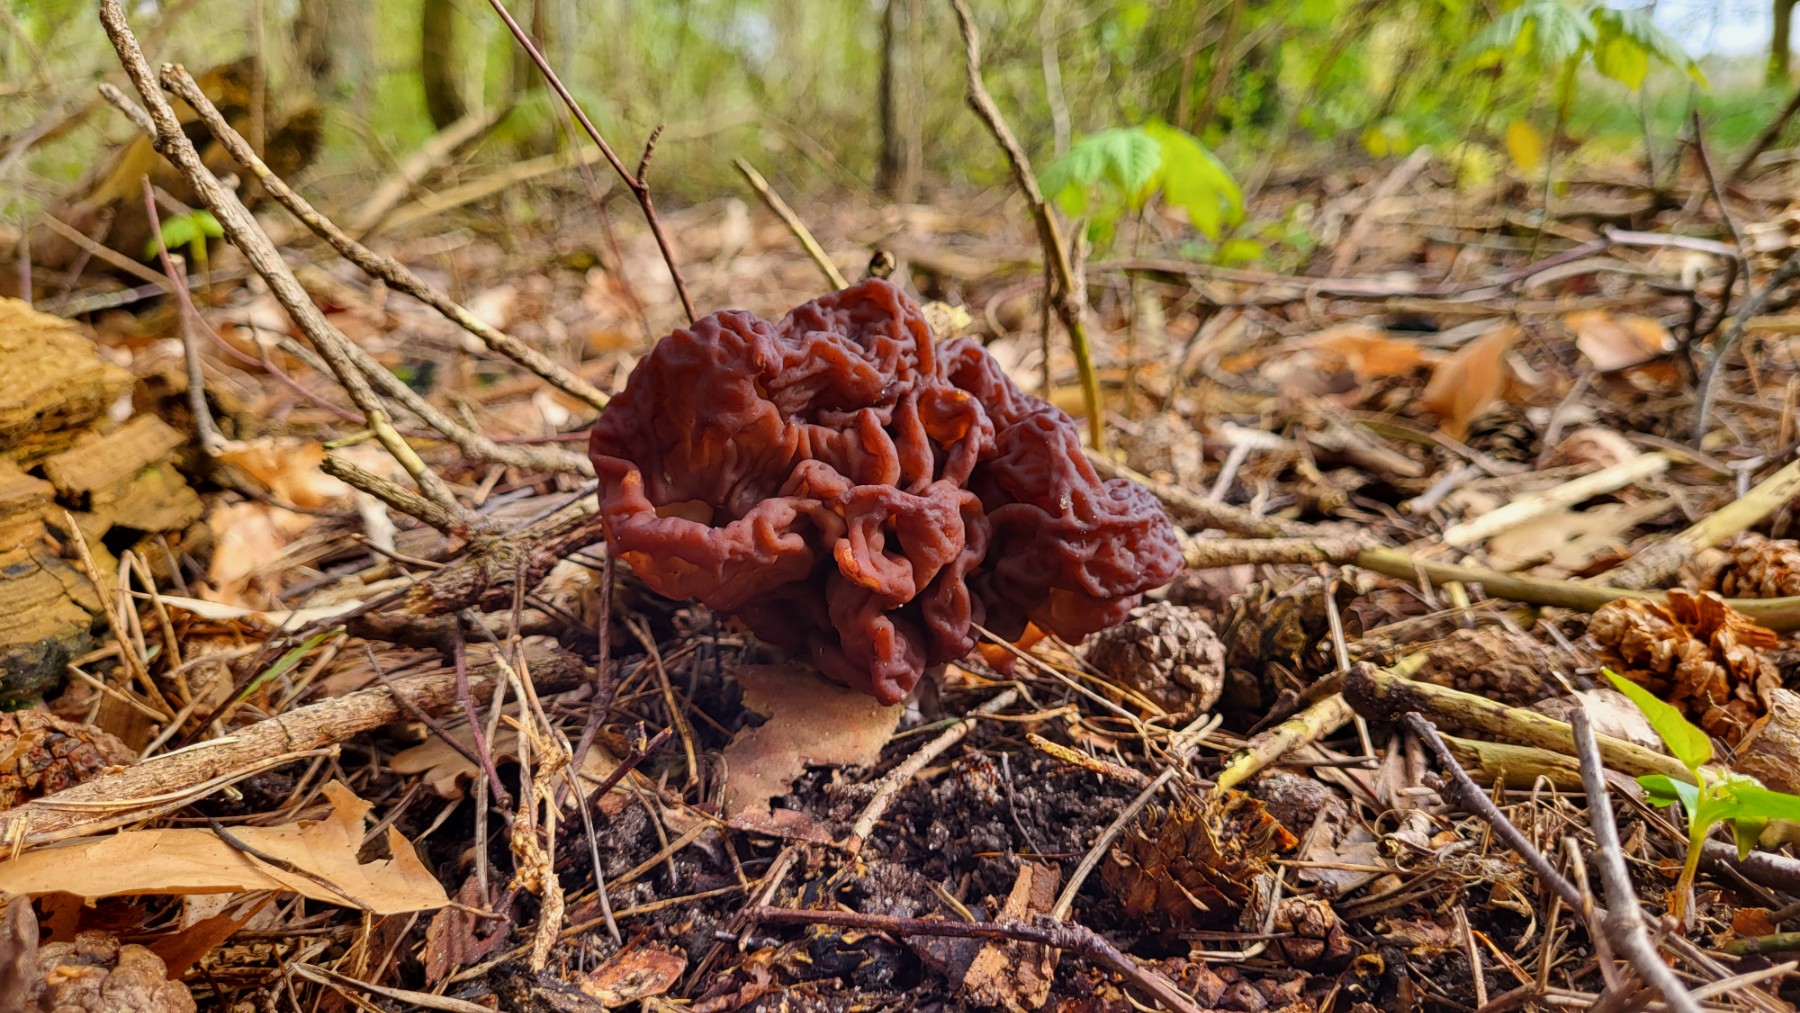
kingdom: Fungi
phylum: Ascomycota
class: Pezizomycetes
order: Pezizales
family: Discinaceae
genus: Gyromitra
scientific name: Gyromitra esculenta
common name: ægte stenmorkel
